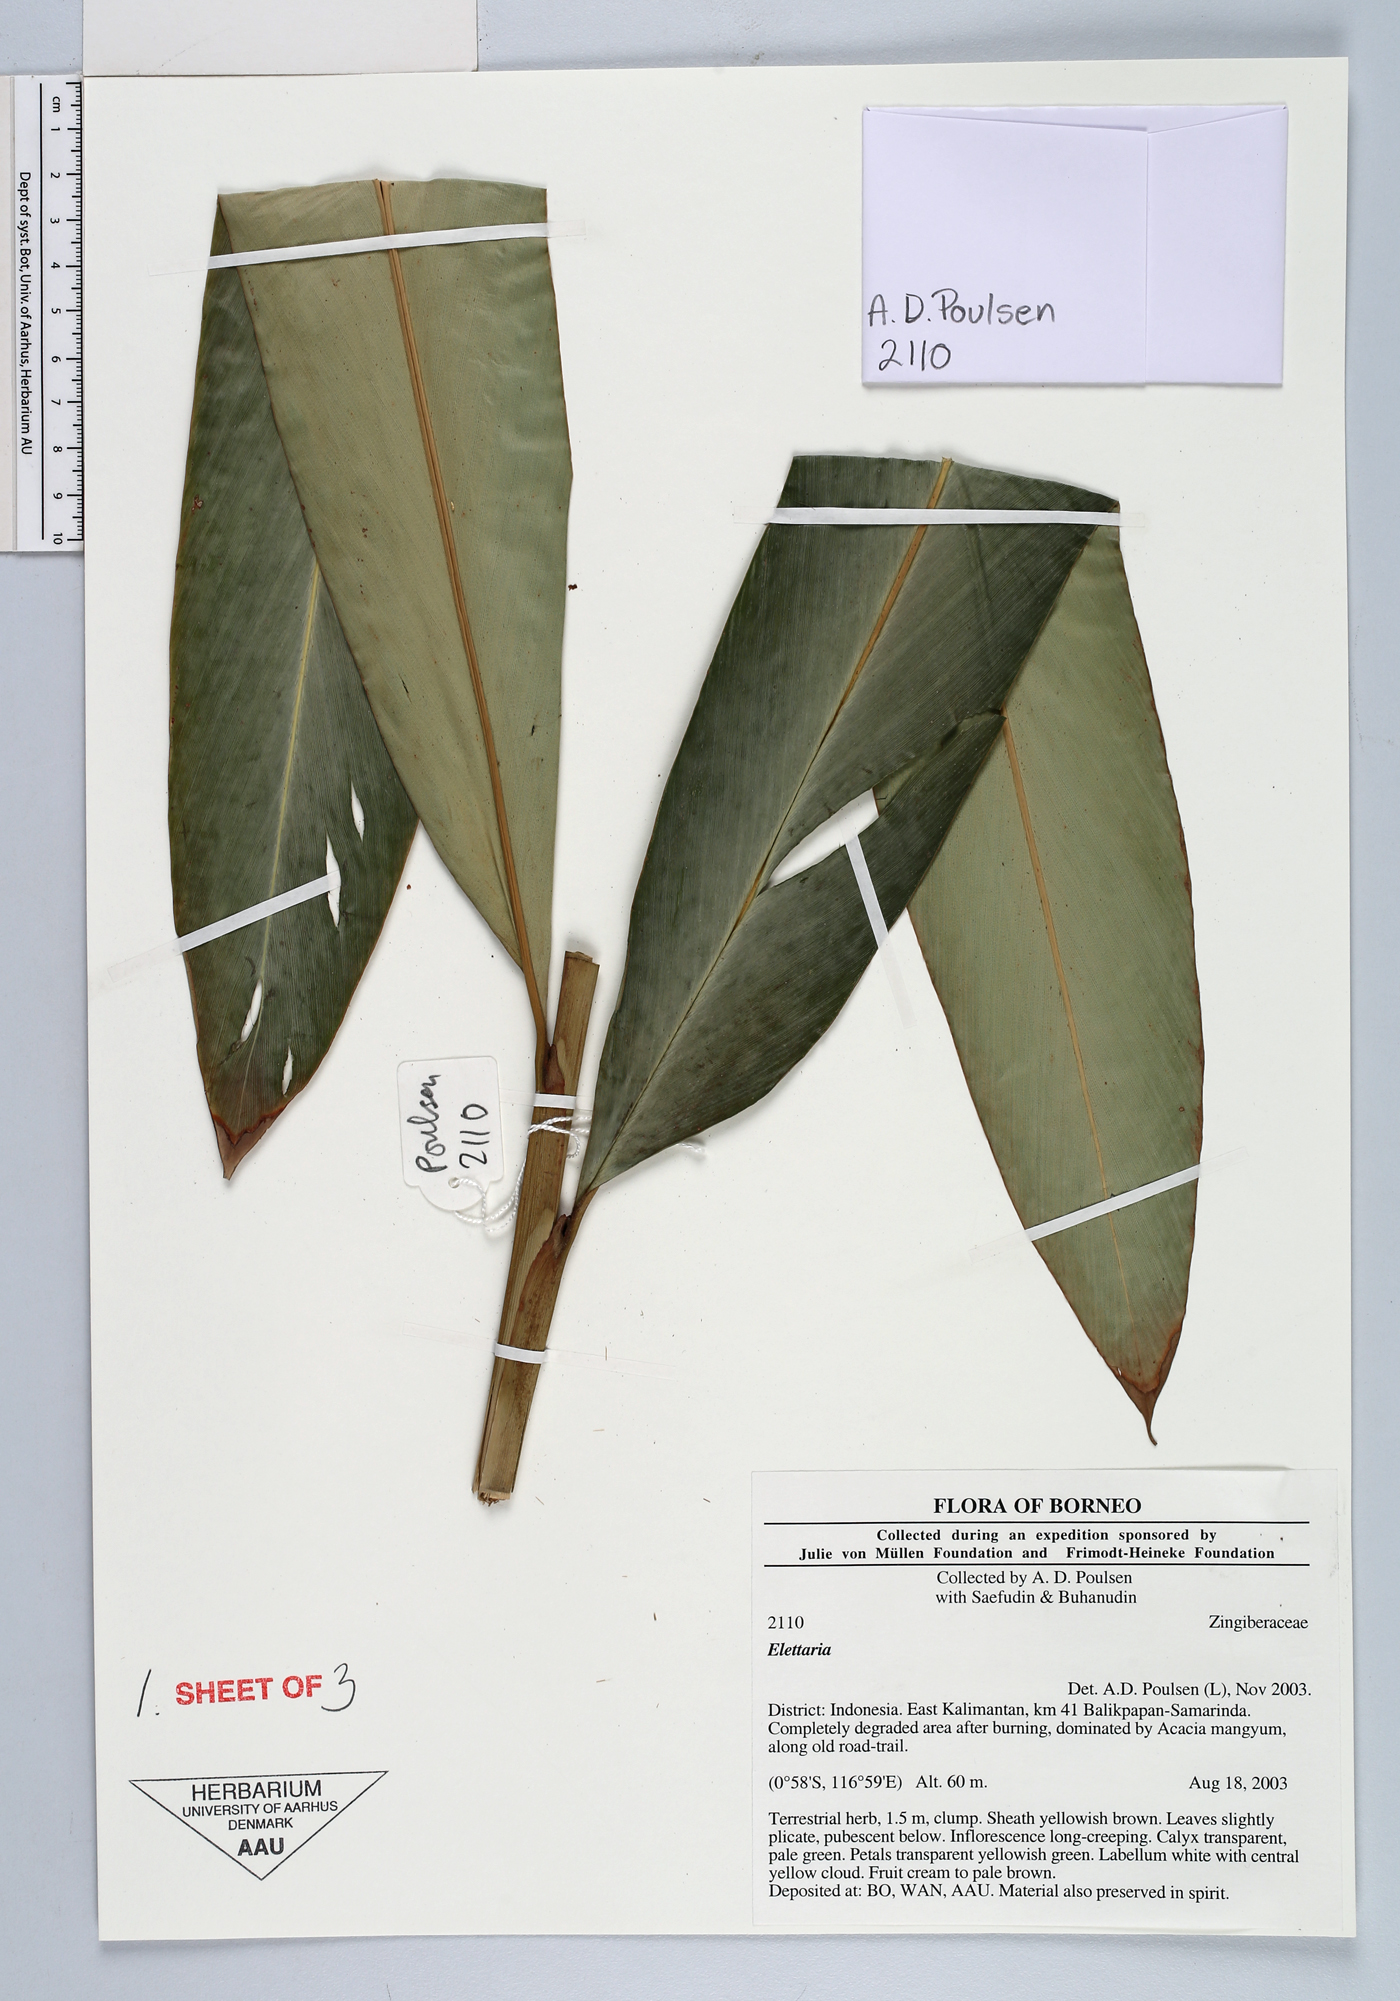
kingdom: Plantae
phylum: Tracheophyta
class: Liliopsida
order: Zingiberales
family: Zingiberaceae
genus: Sulettaria
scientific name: Sulettaria stoloniflora
